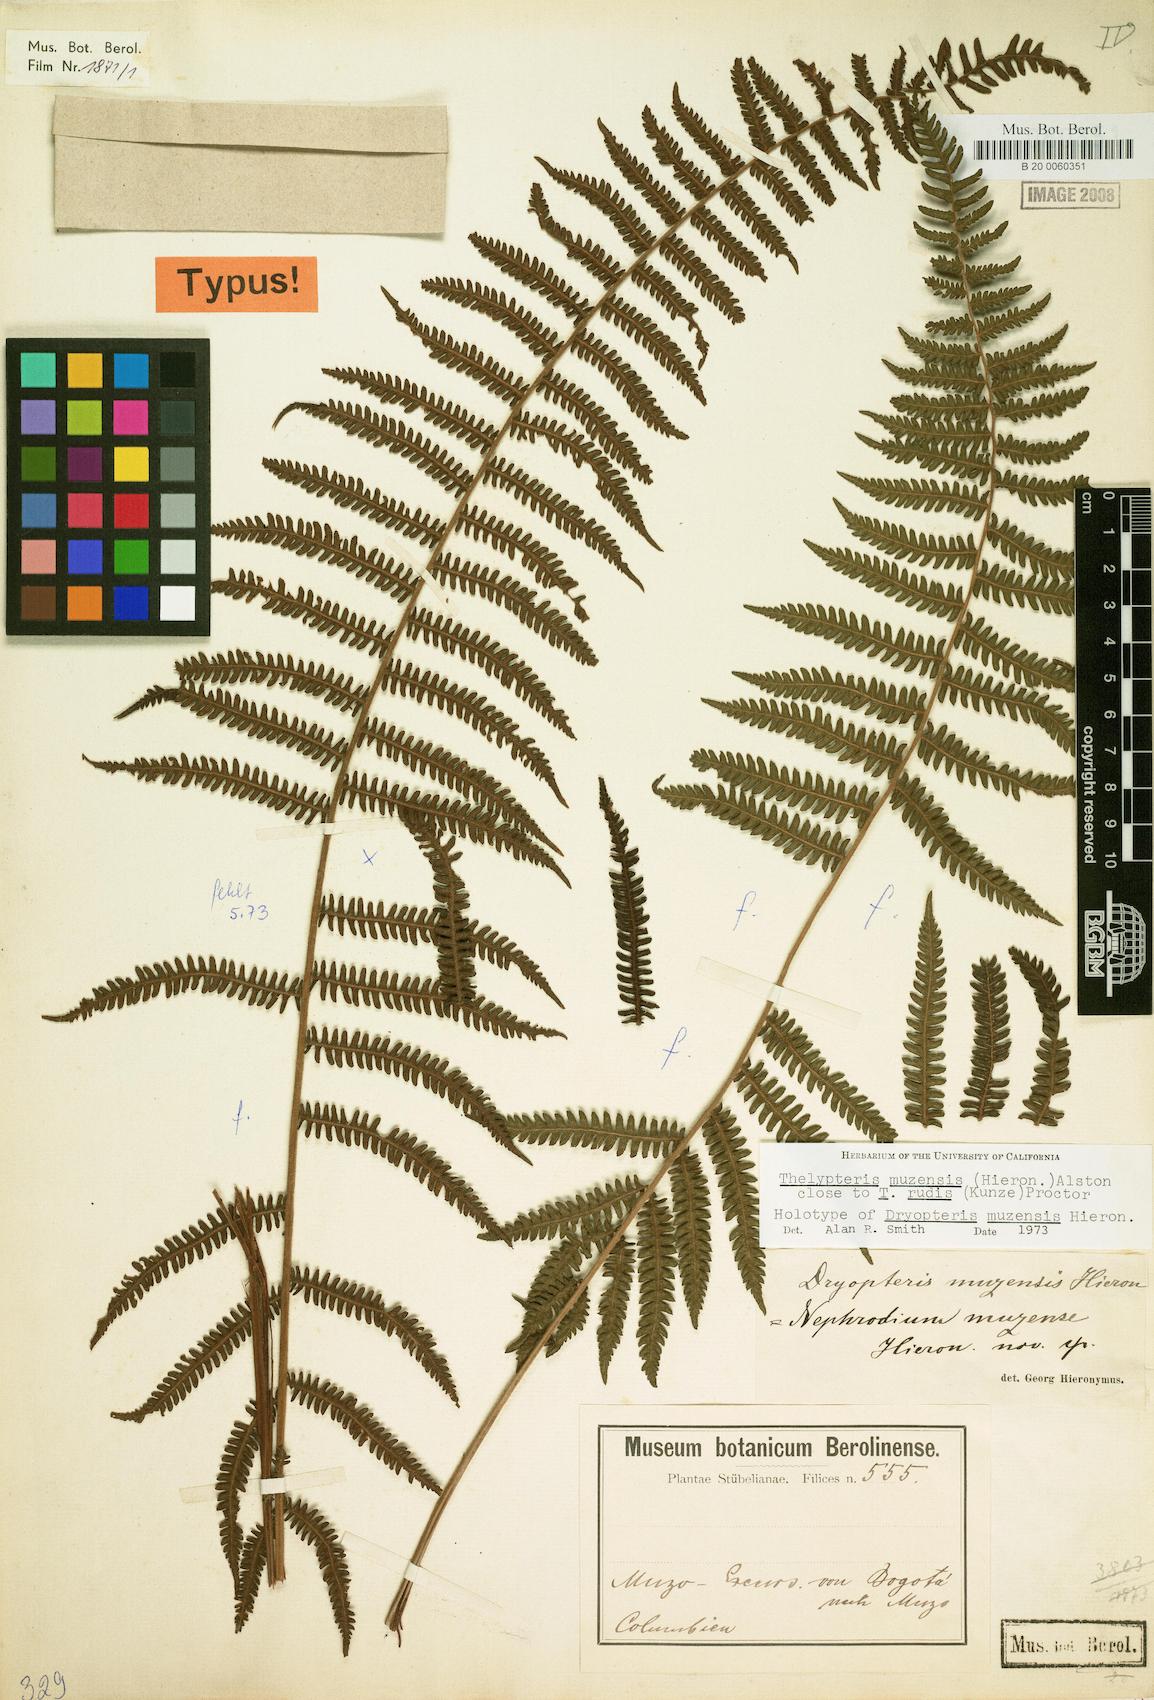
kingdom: Plantae
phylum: Tracheophyta
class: Polypodiopsida
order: Polypodiales
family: Thelypteridaceae
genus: Amauropelta
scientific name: Amauropelta muzensis
